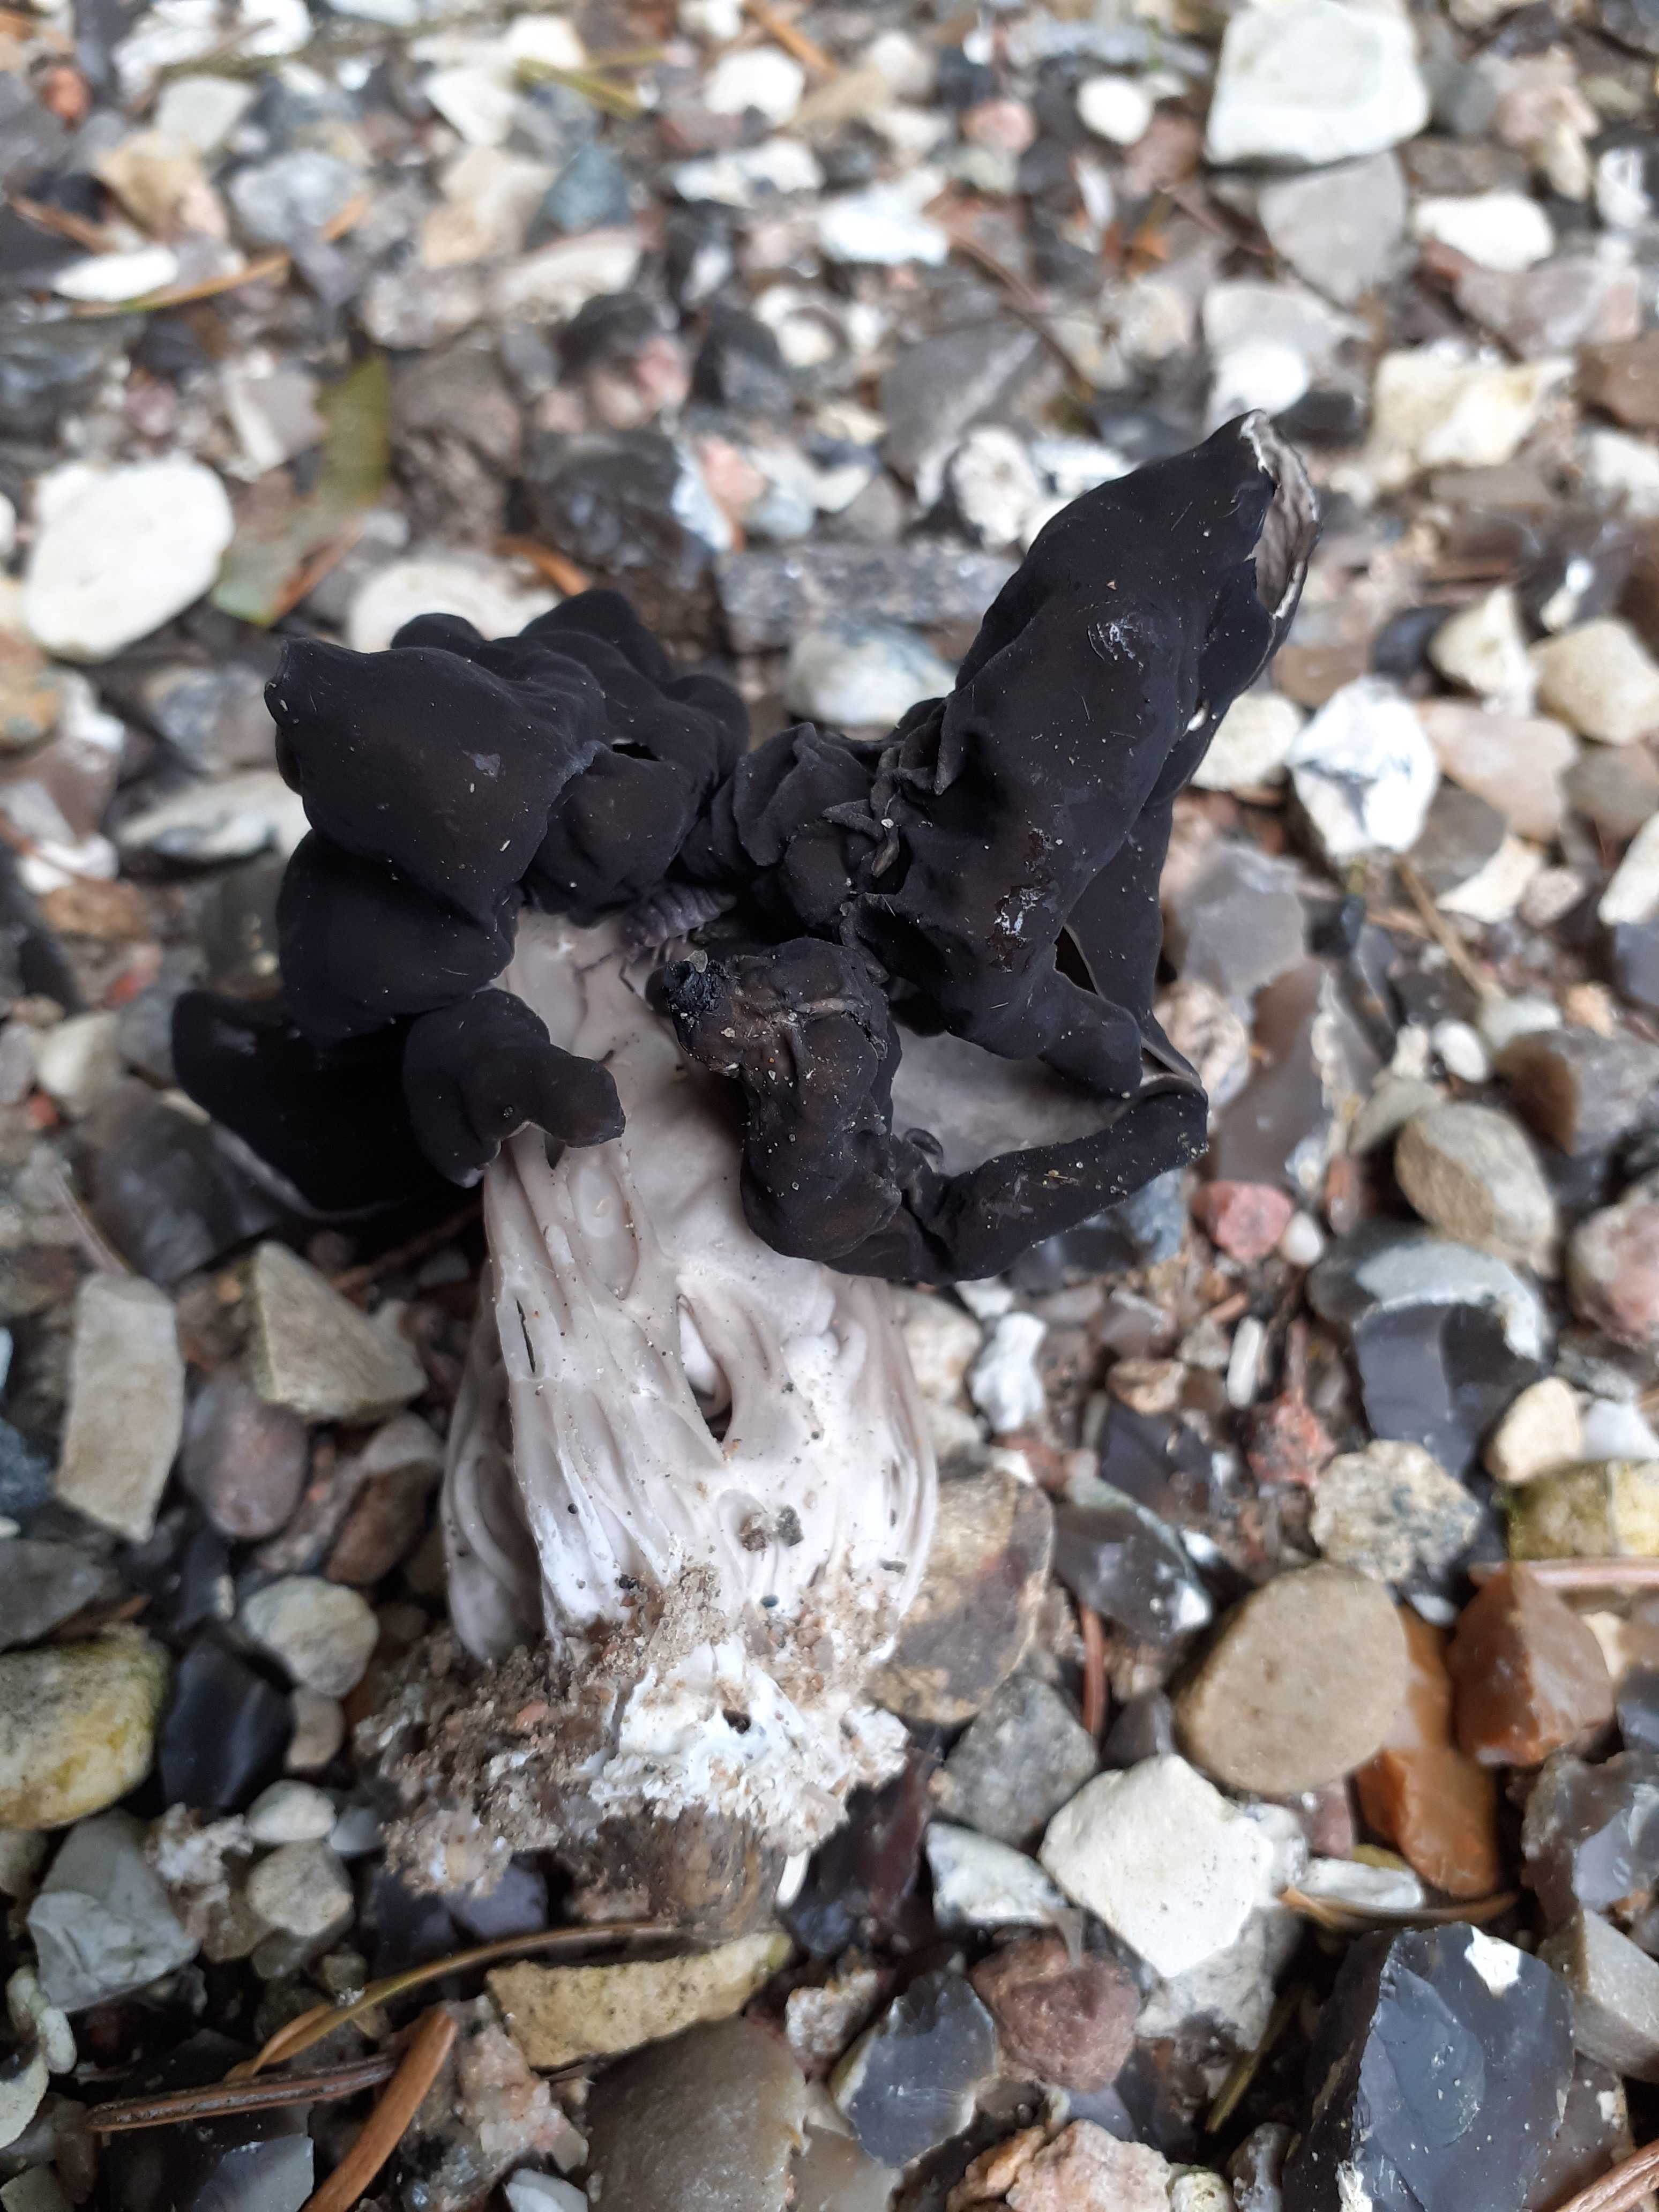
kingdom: Fungi
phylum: Ascomycota
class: Pezizomycetes
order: Pezizales
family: Helvellaceae
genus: Helvella
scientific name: Helvella lacunosa
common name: grubet foldhat
